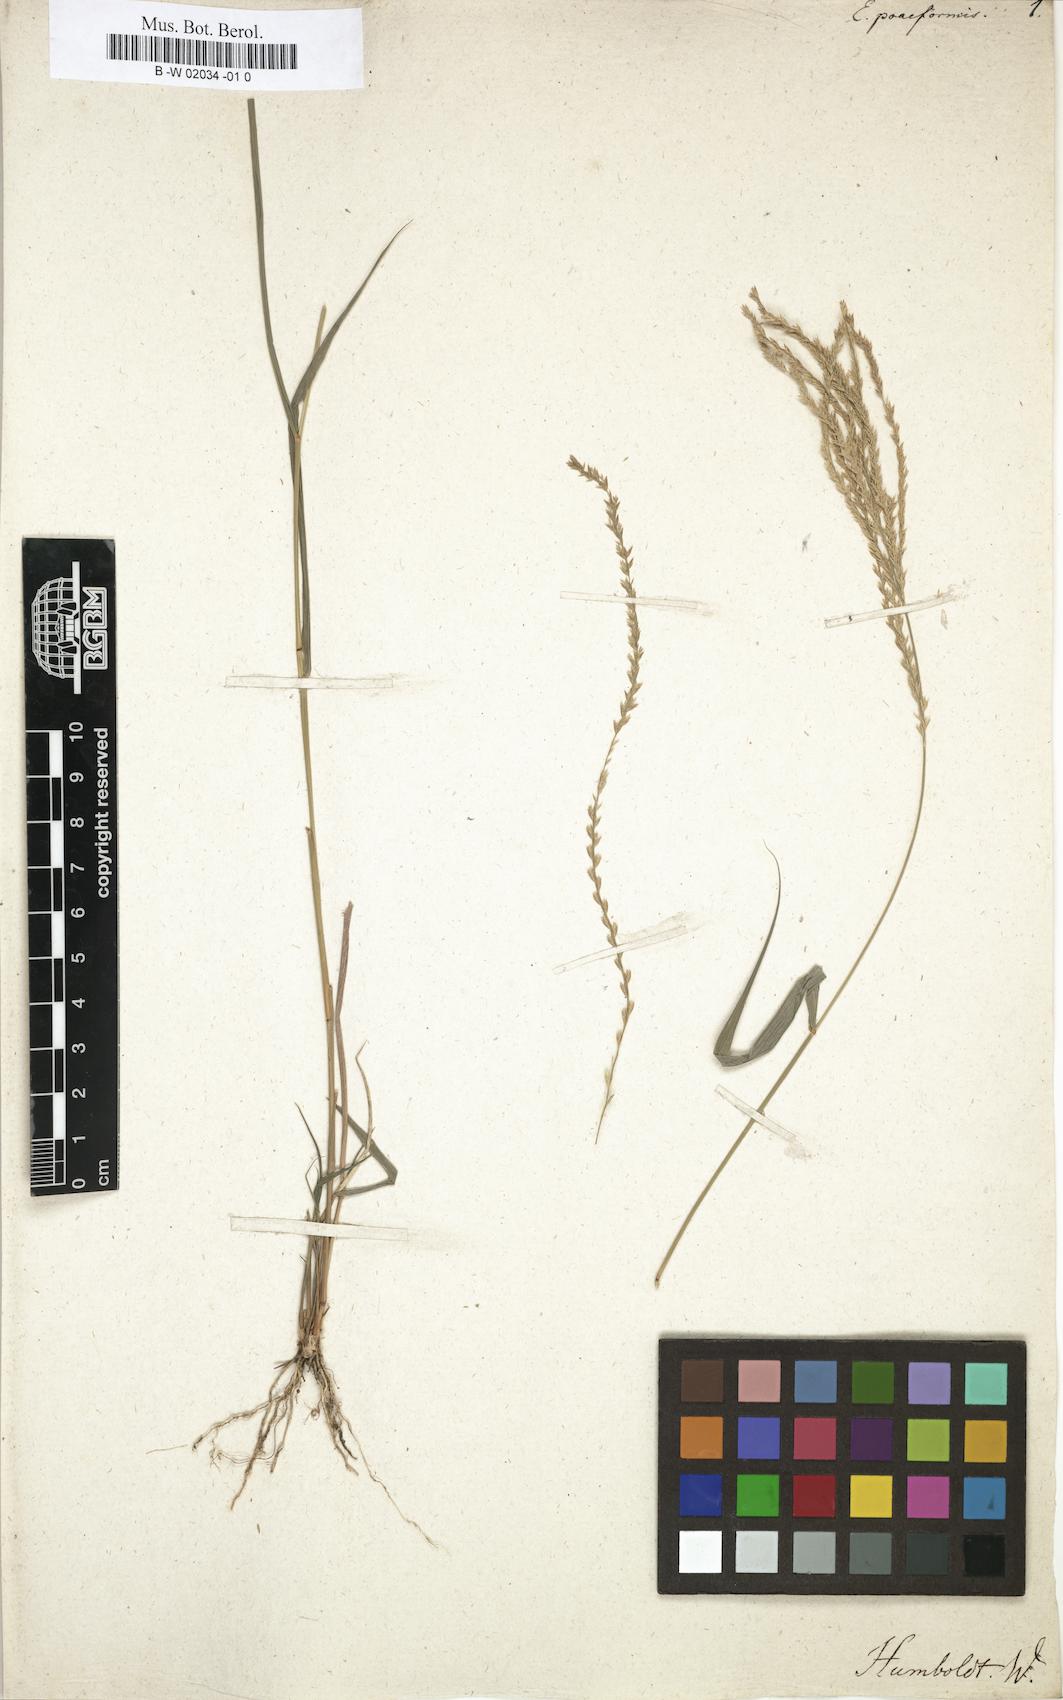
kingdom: Plantae
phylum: Tracheophyta
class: Liliopsida
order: Poales
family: Poaceae
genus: Eleusine
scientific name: Eleusine
